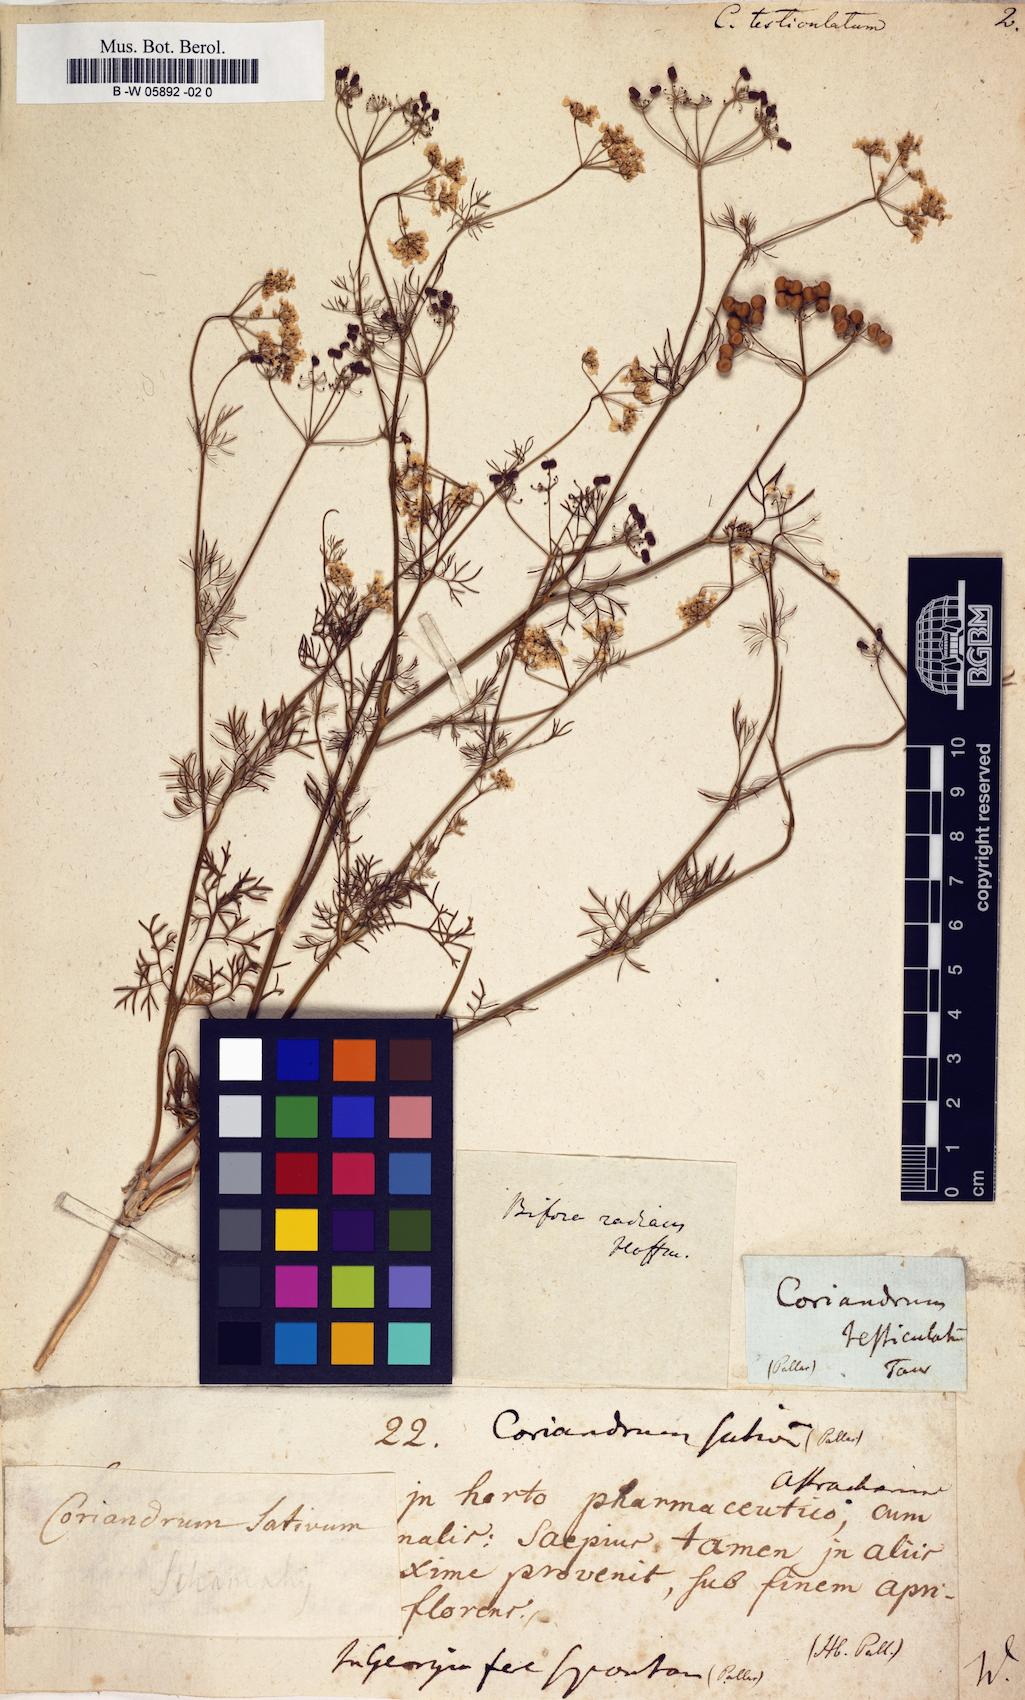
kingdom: Plantae
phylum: Tracheophyta
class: Magnoliopsida
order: Apiales
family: Apiaceae
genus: Bifora
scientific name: Bifora testiculata
